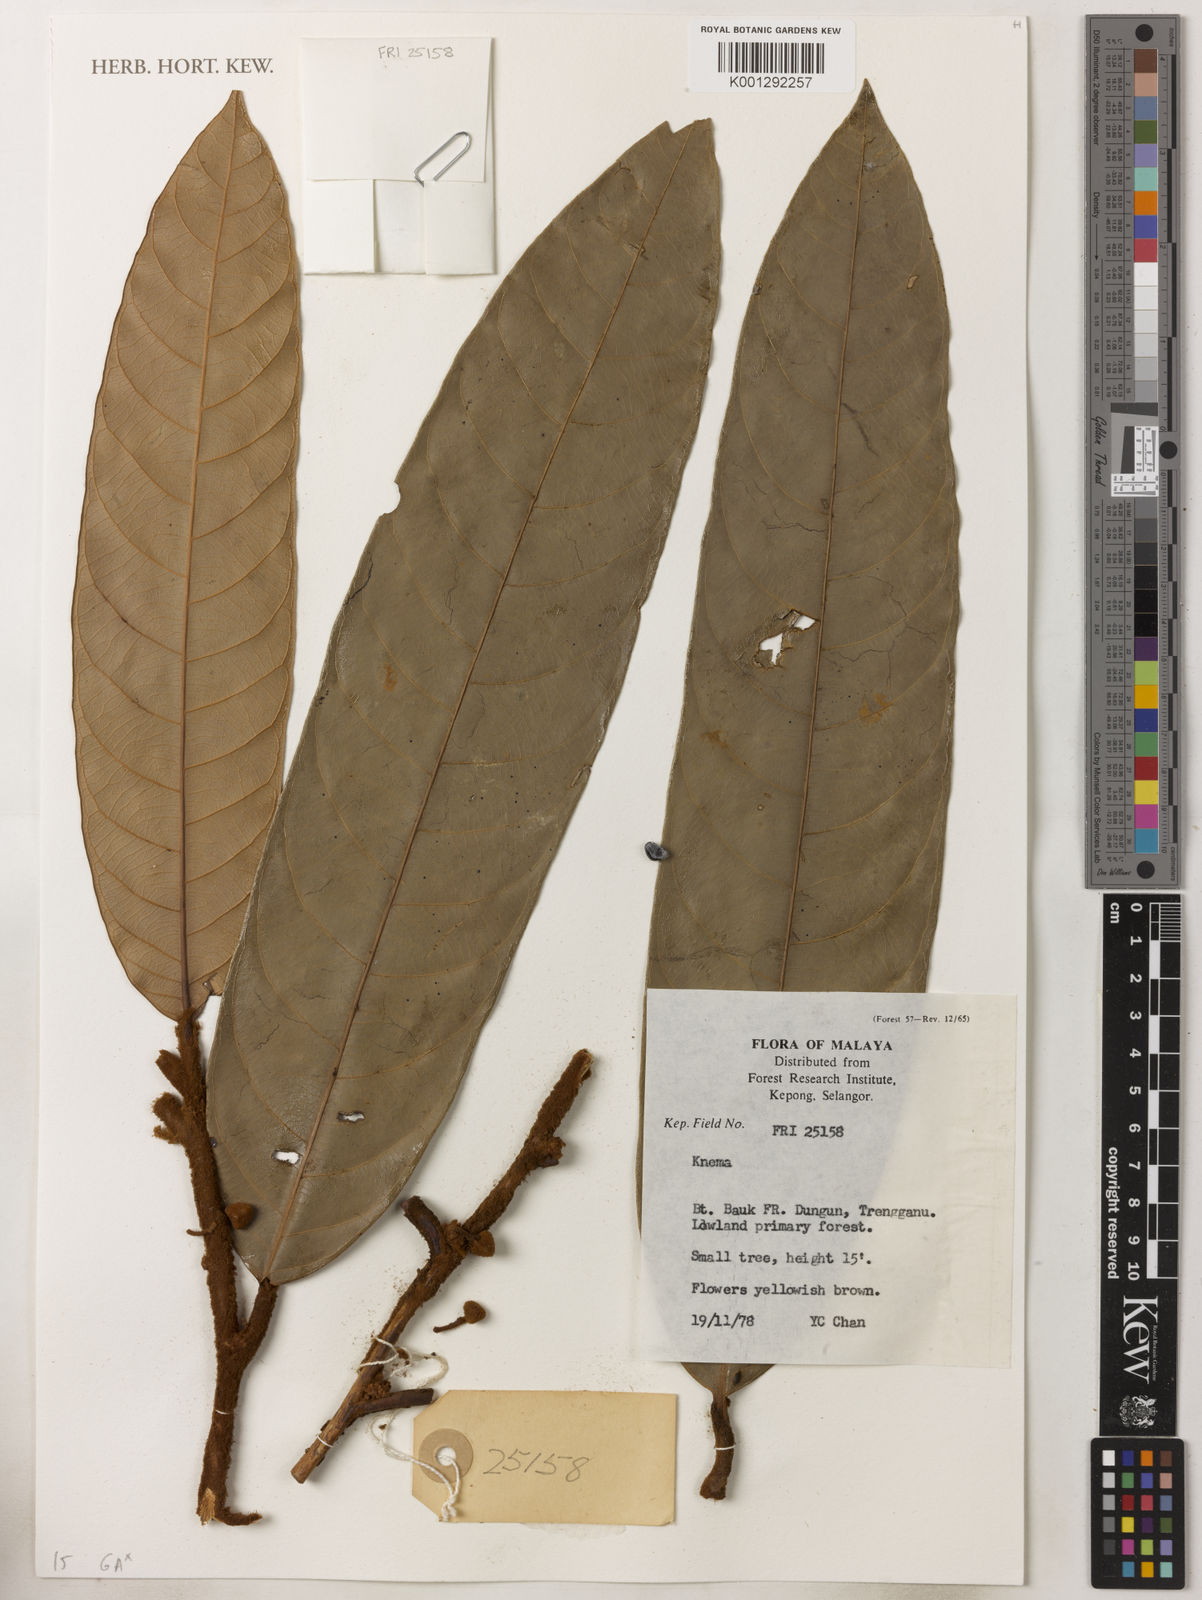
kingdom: Plantae
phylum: Tracheophyta
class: Magnoliopsida
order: Magnoliales
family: Myristicaceae
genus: Knema
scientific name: Knema
